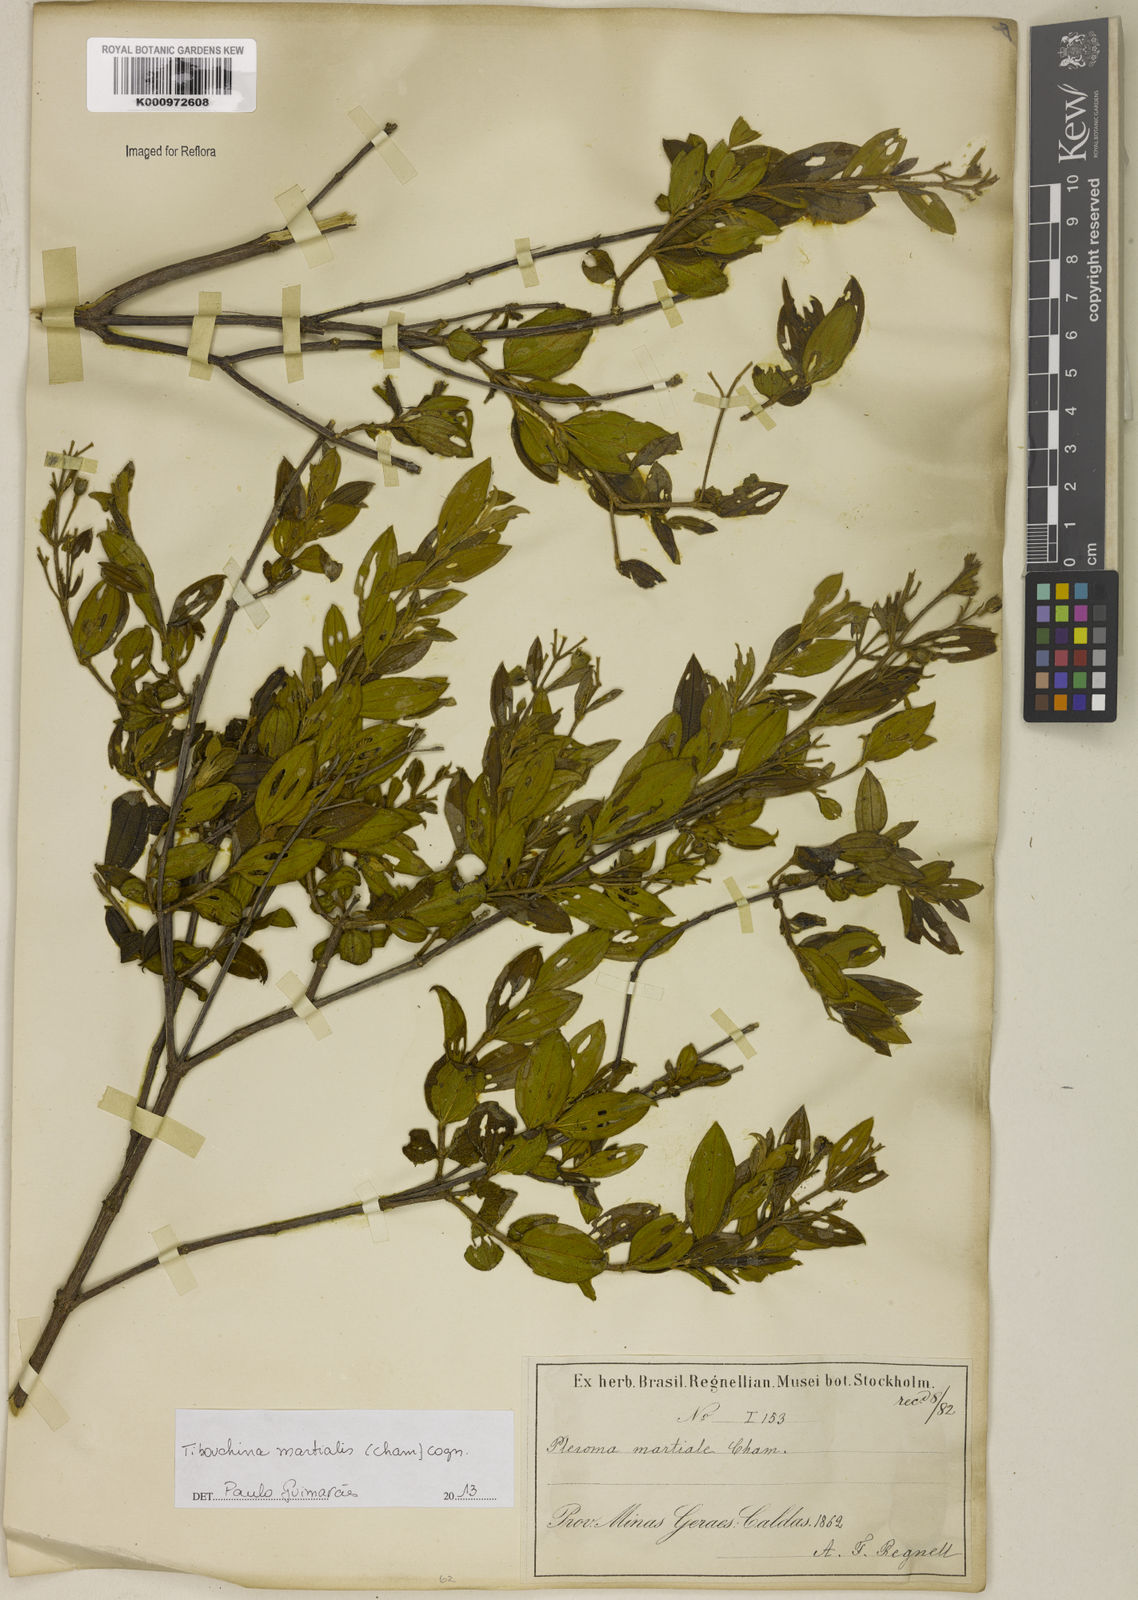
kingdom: Plantae
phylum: Tracheophyta
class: Magnoliopsida
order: Myrtales
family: Melastomataceae
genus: Pleroma
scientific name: Pleroma martiale
